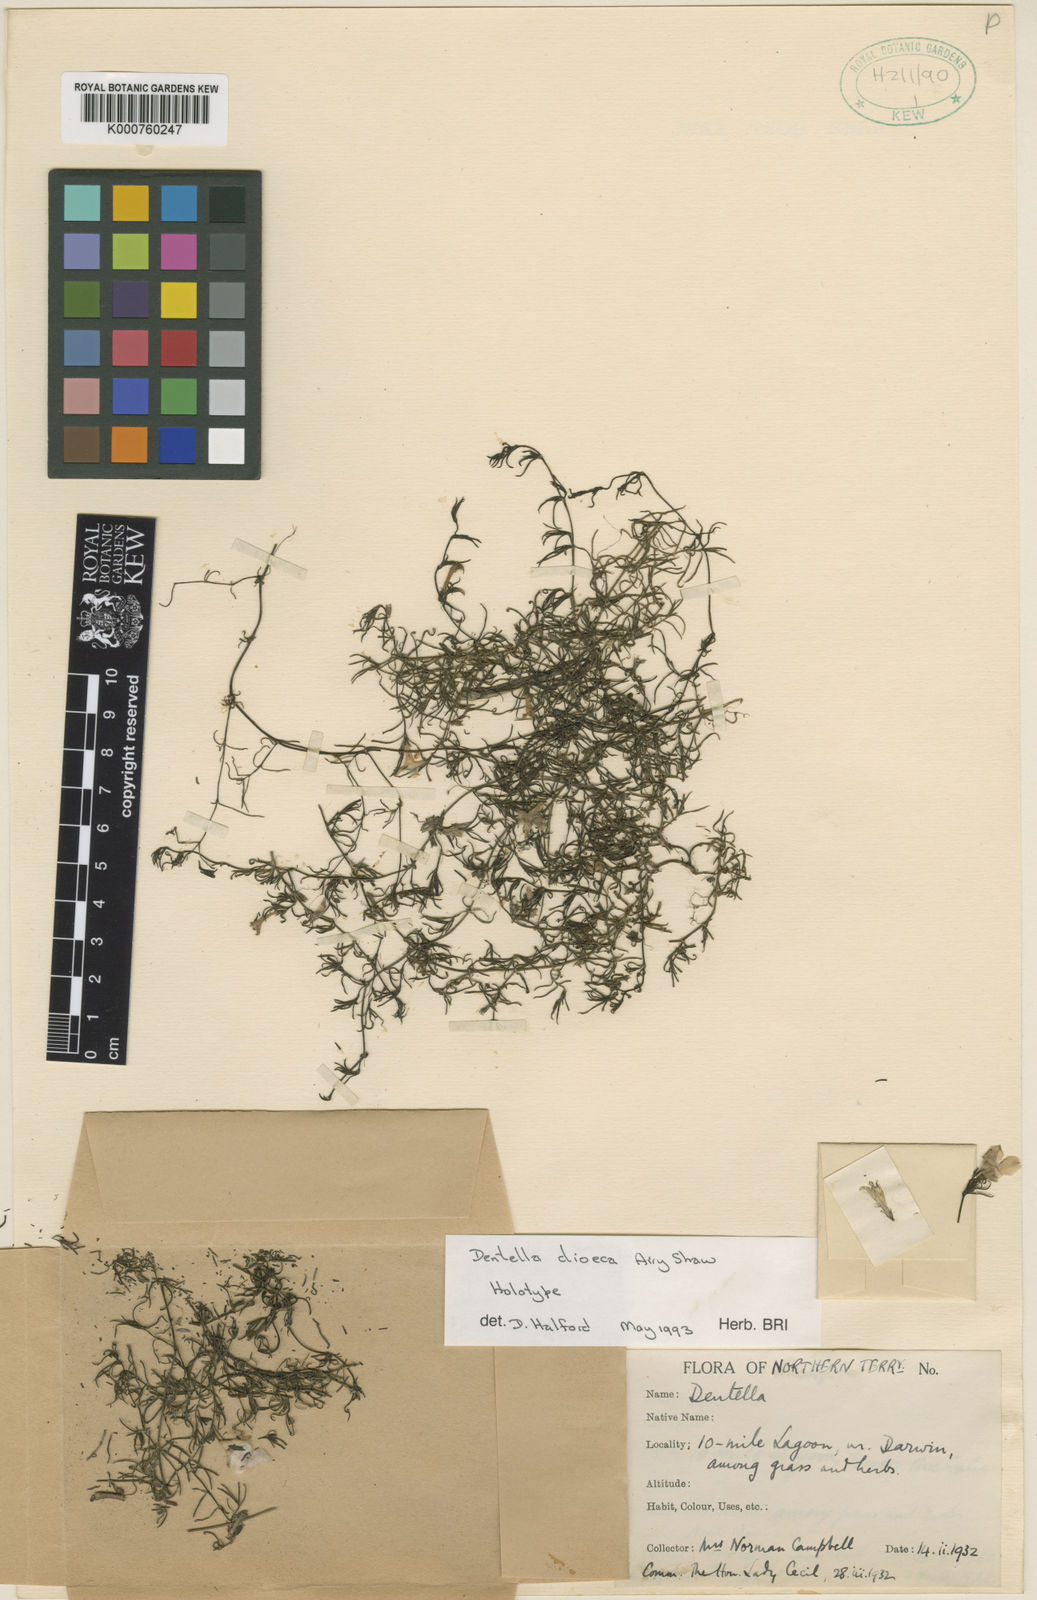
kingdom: Plantae
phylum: Tracheophyta
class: Magnoliopsida
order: Gentianales
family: Rubiaceae
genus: Dentella
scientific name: Dentella dioeca
